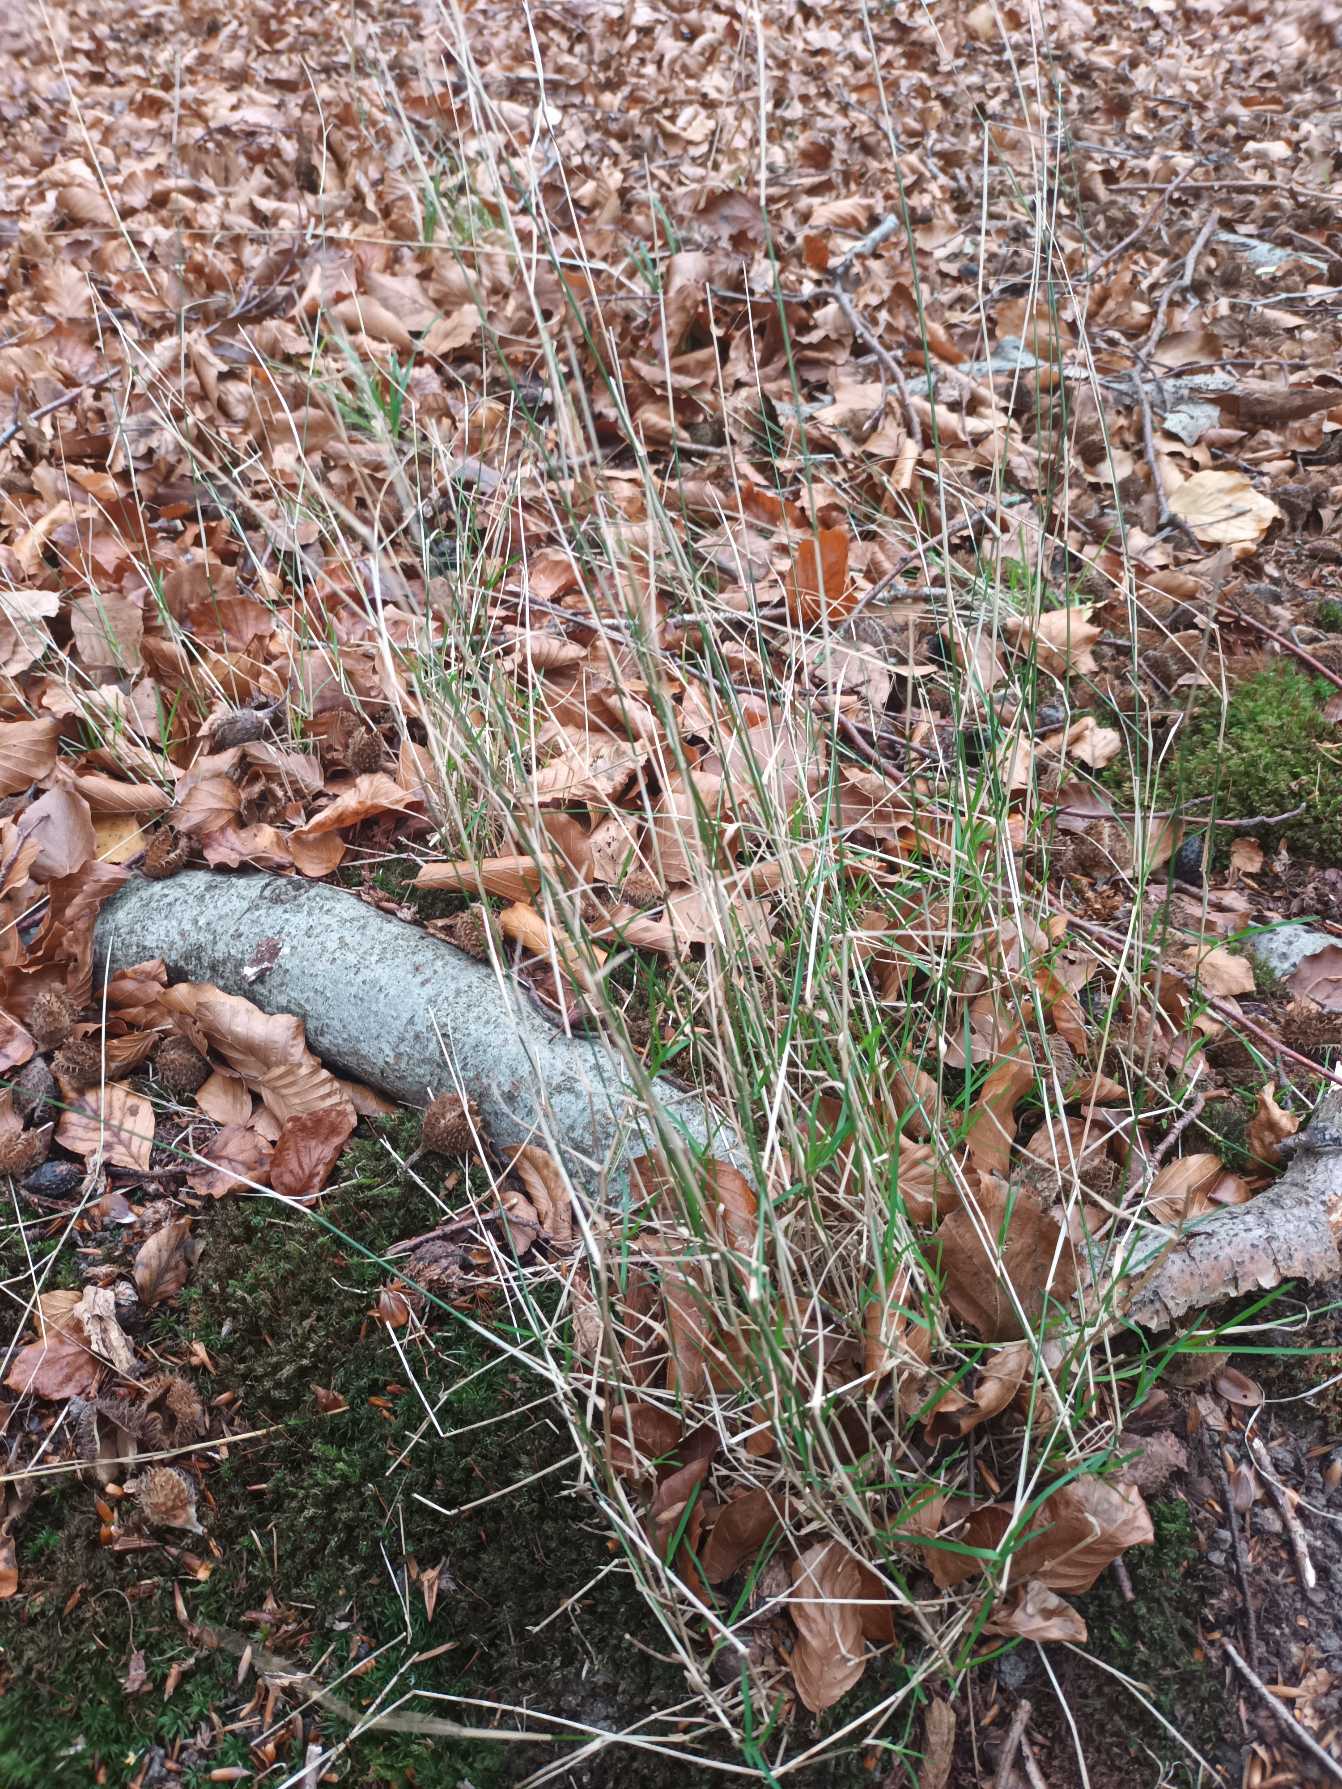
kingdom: Plantae
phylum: Tracheophyta
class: Liliopsida
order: Poales
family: Poaceae
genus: Poa
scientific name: Poa nemoralis
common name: Lund-rapgræs
